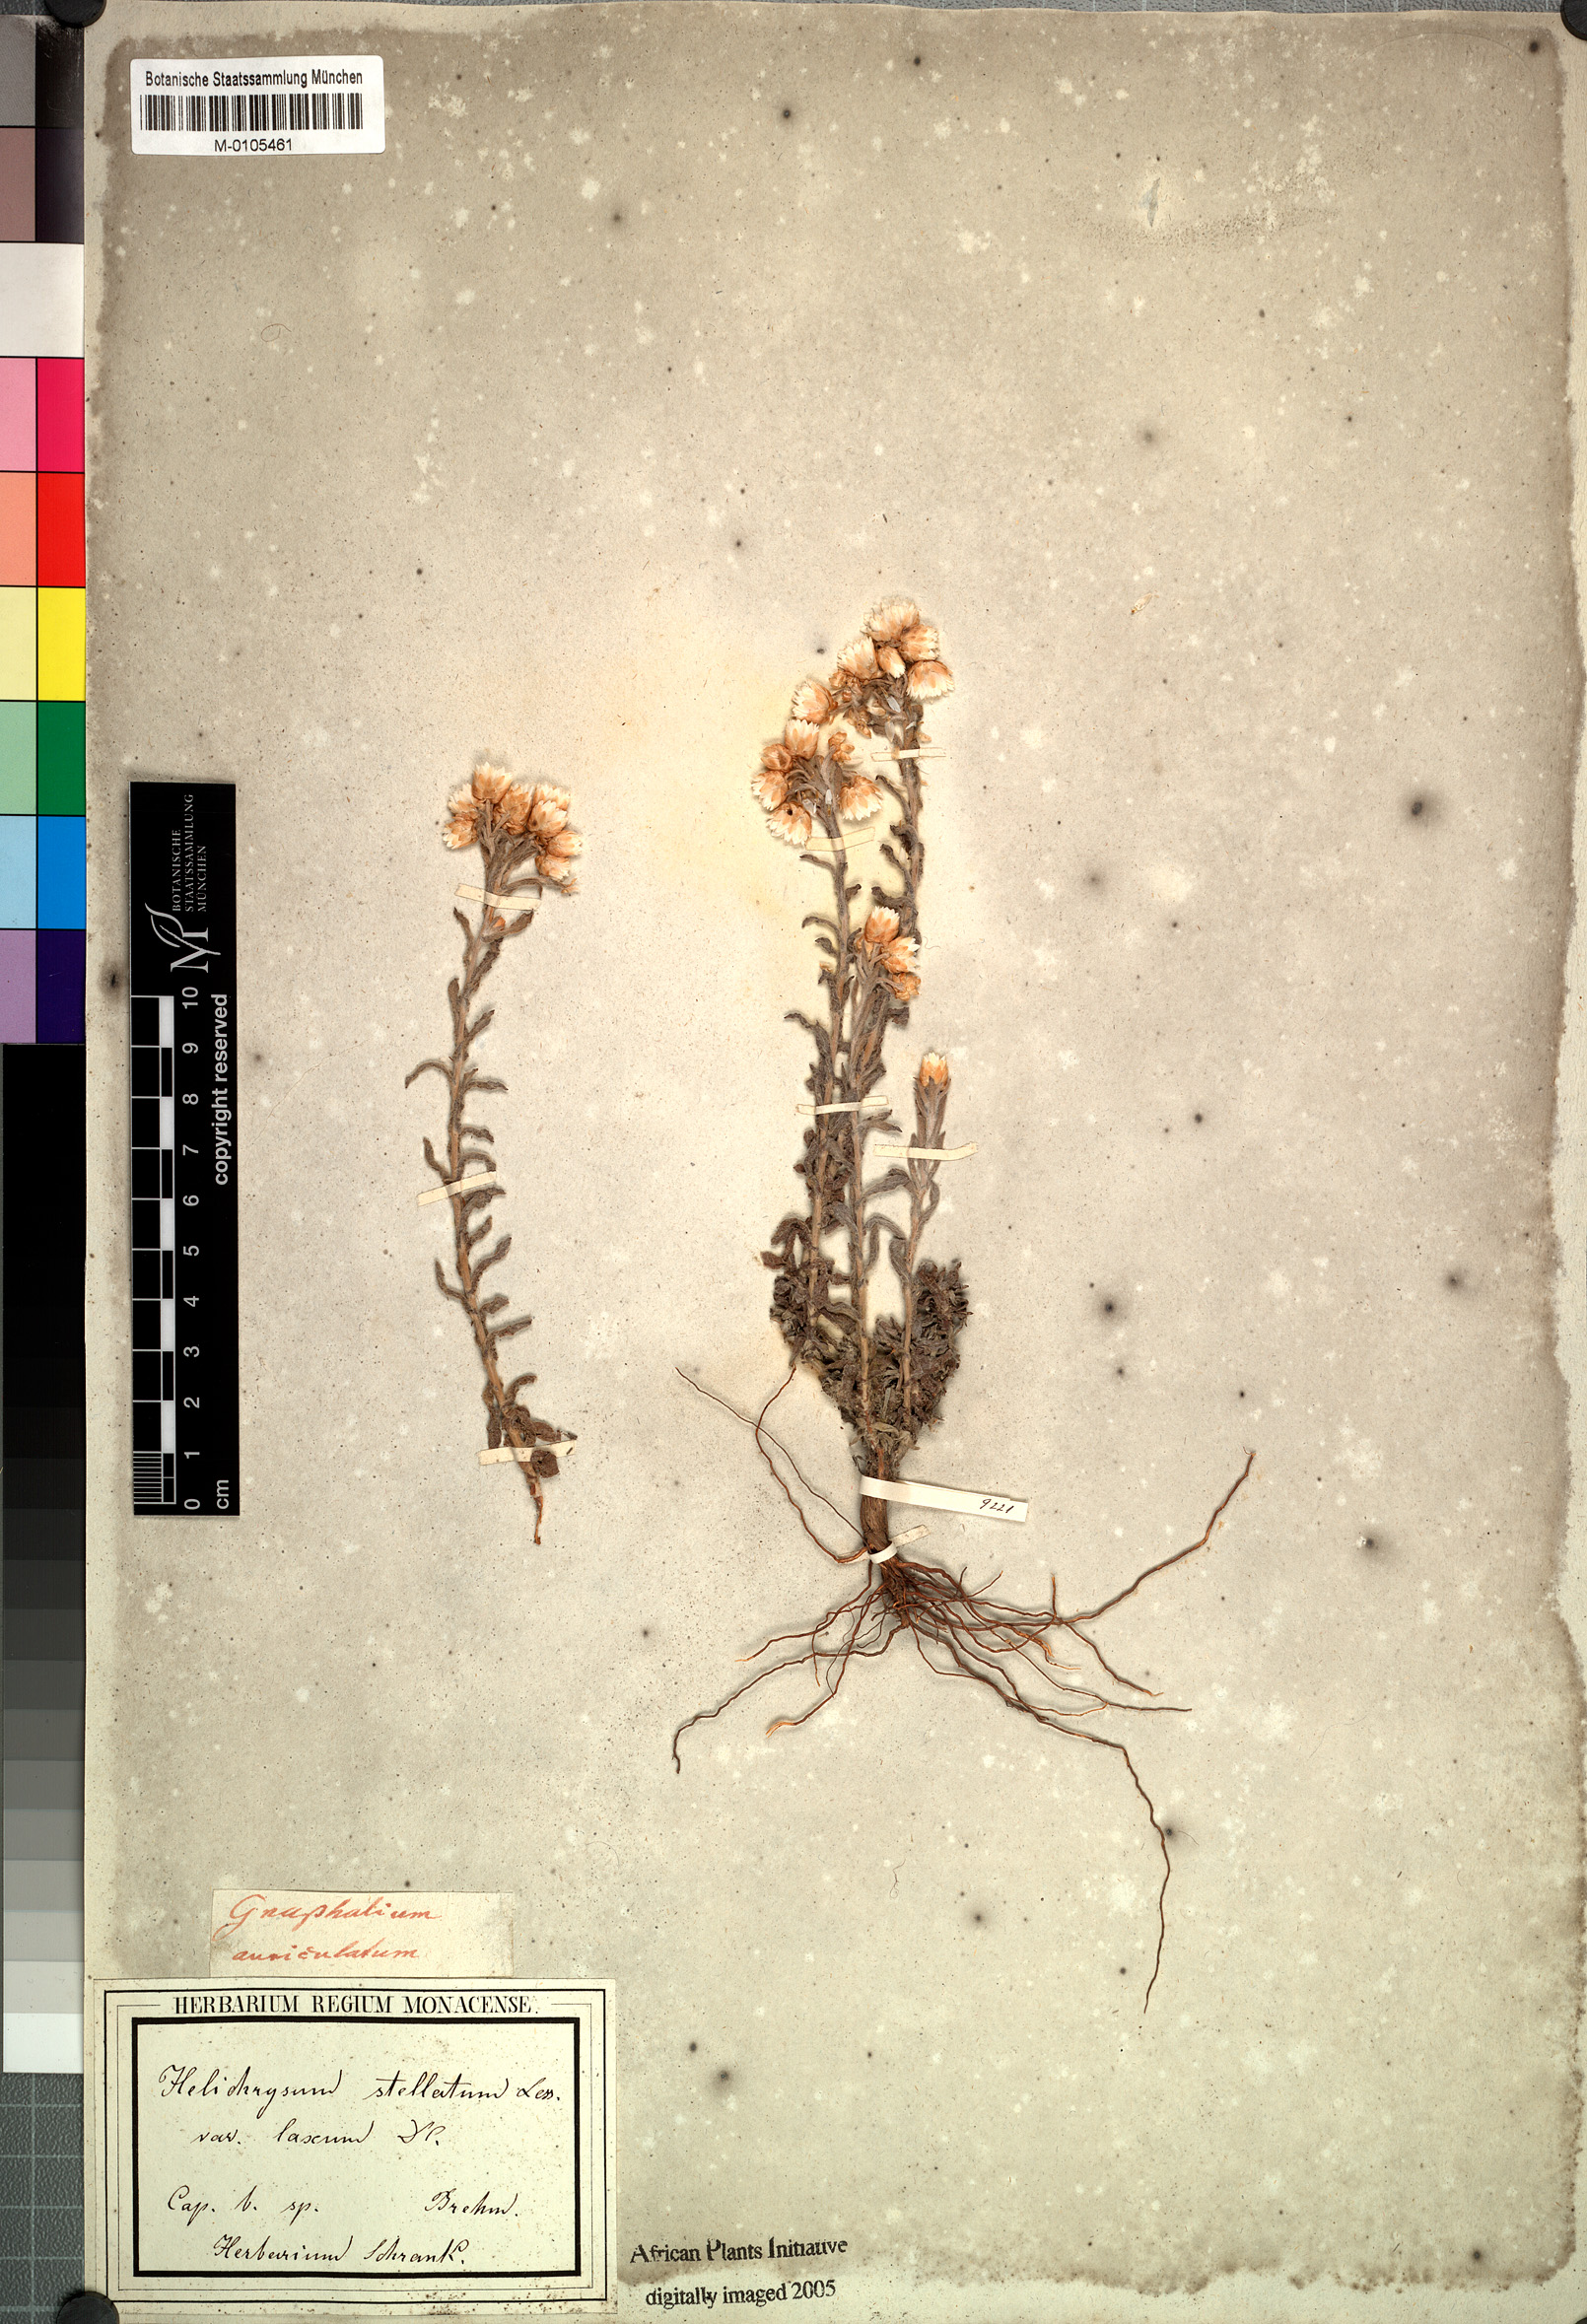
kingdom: Plantae
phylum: Tracheophyta
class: Magnoliopsida
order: Asterales
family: Asteraceae
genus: Helichrysum
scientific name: Helichrysum stellatum
